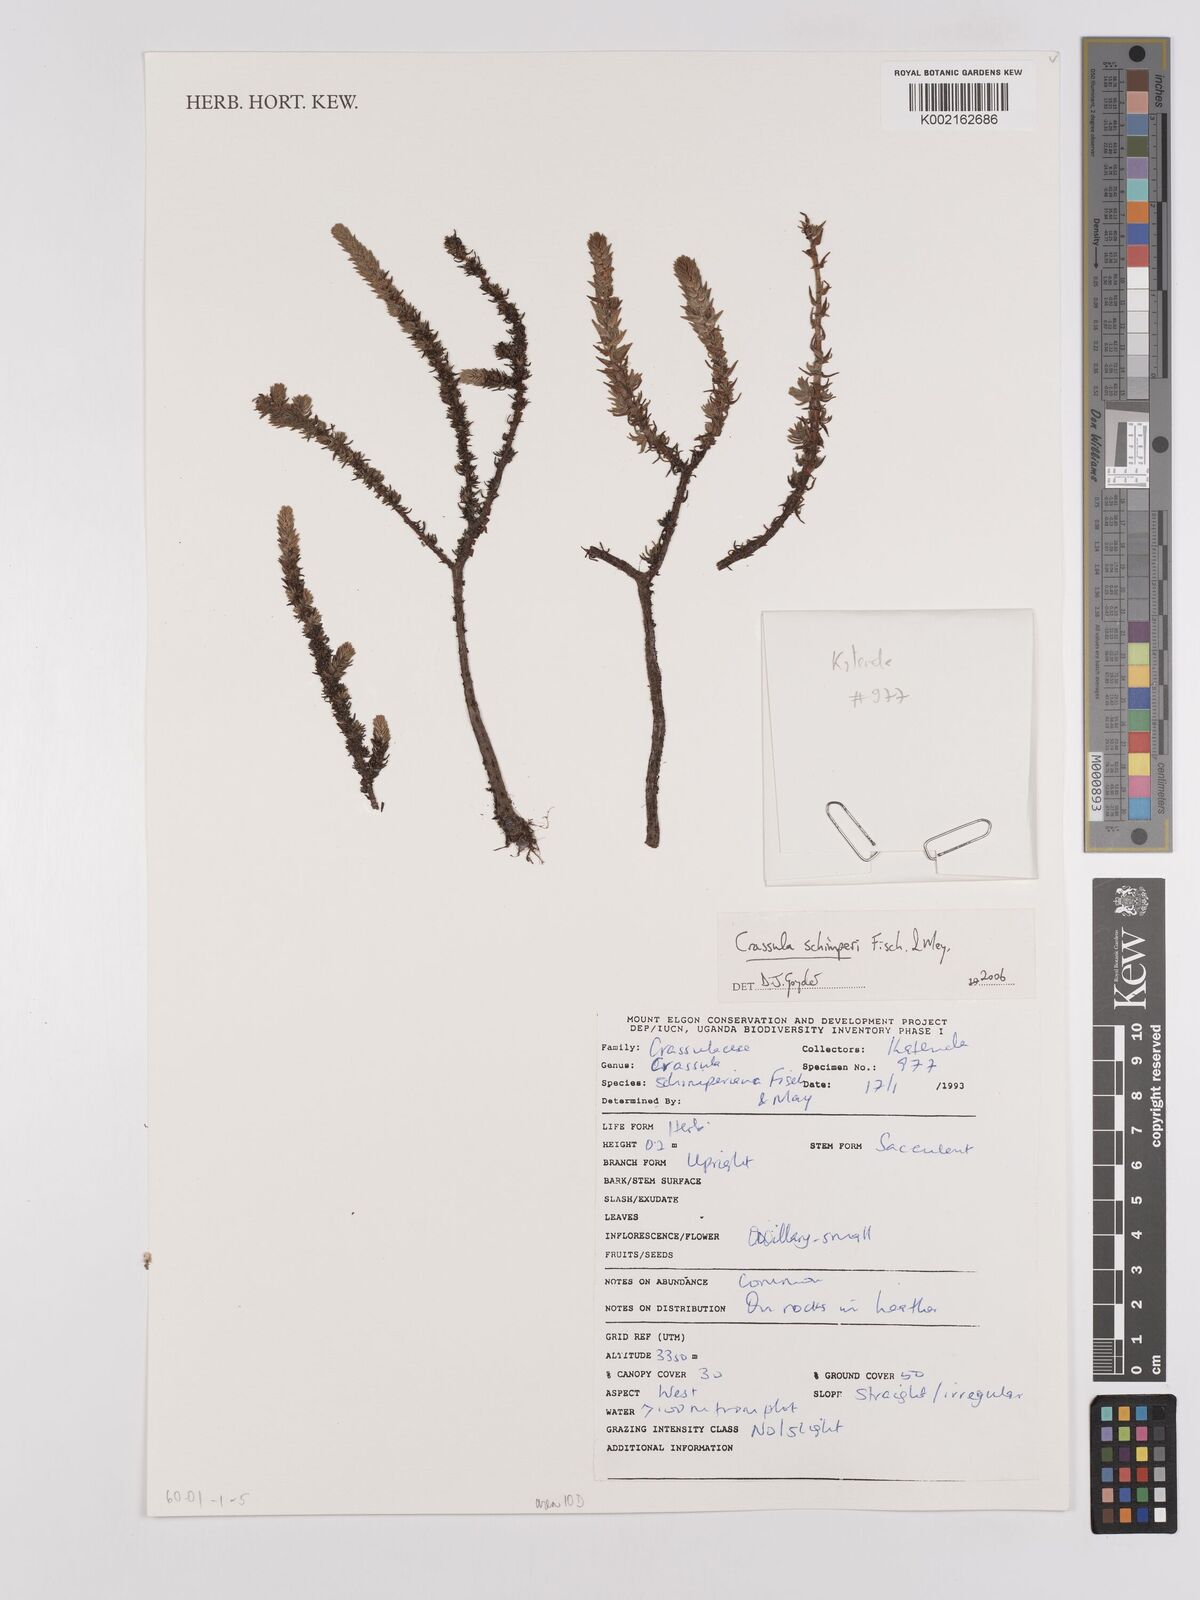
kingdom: Plantae
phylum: Tracheophyta
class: Magnoliopsida
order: Saxifragales
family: Crassulaceae
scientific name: Crassulaceae
